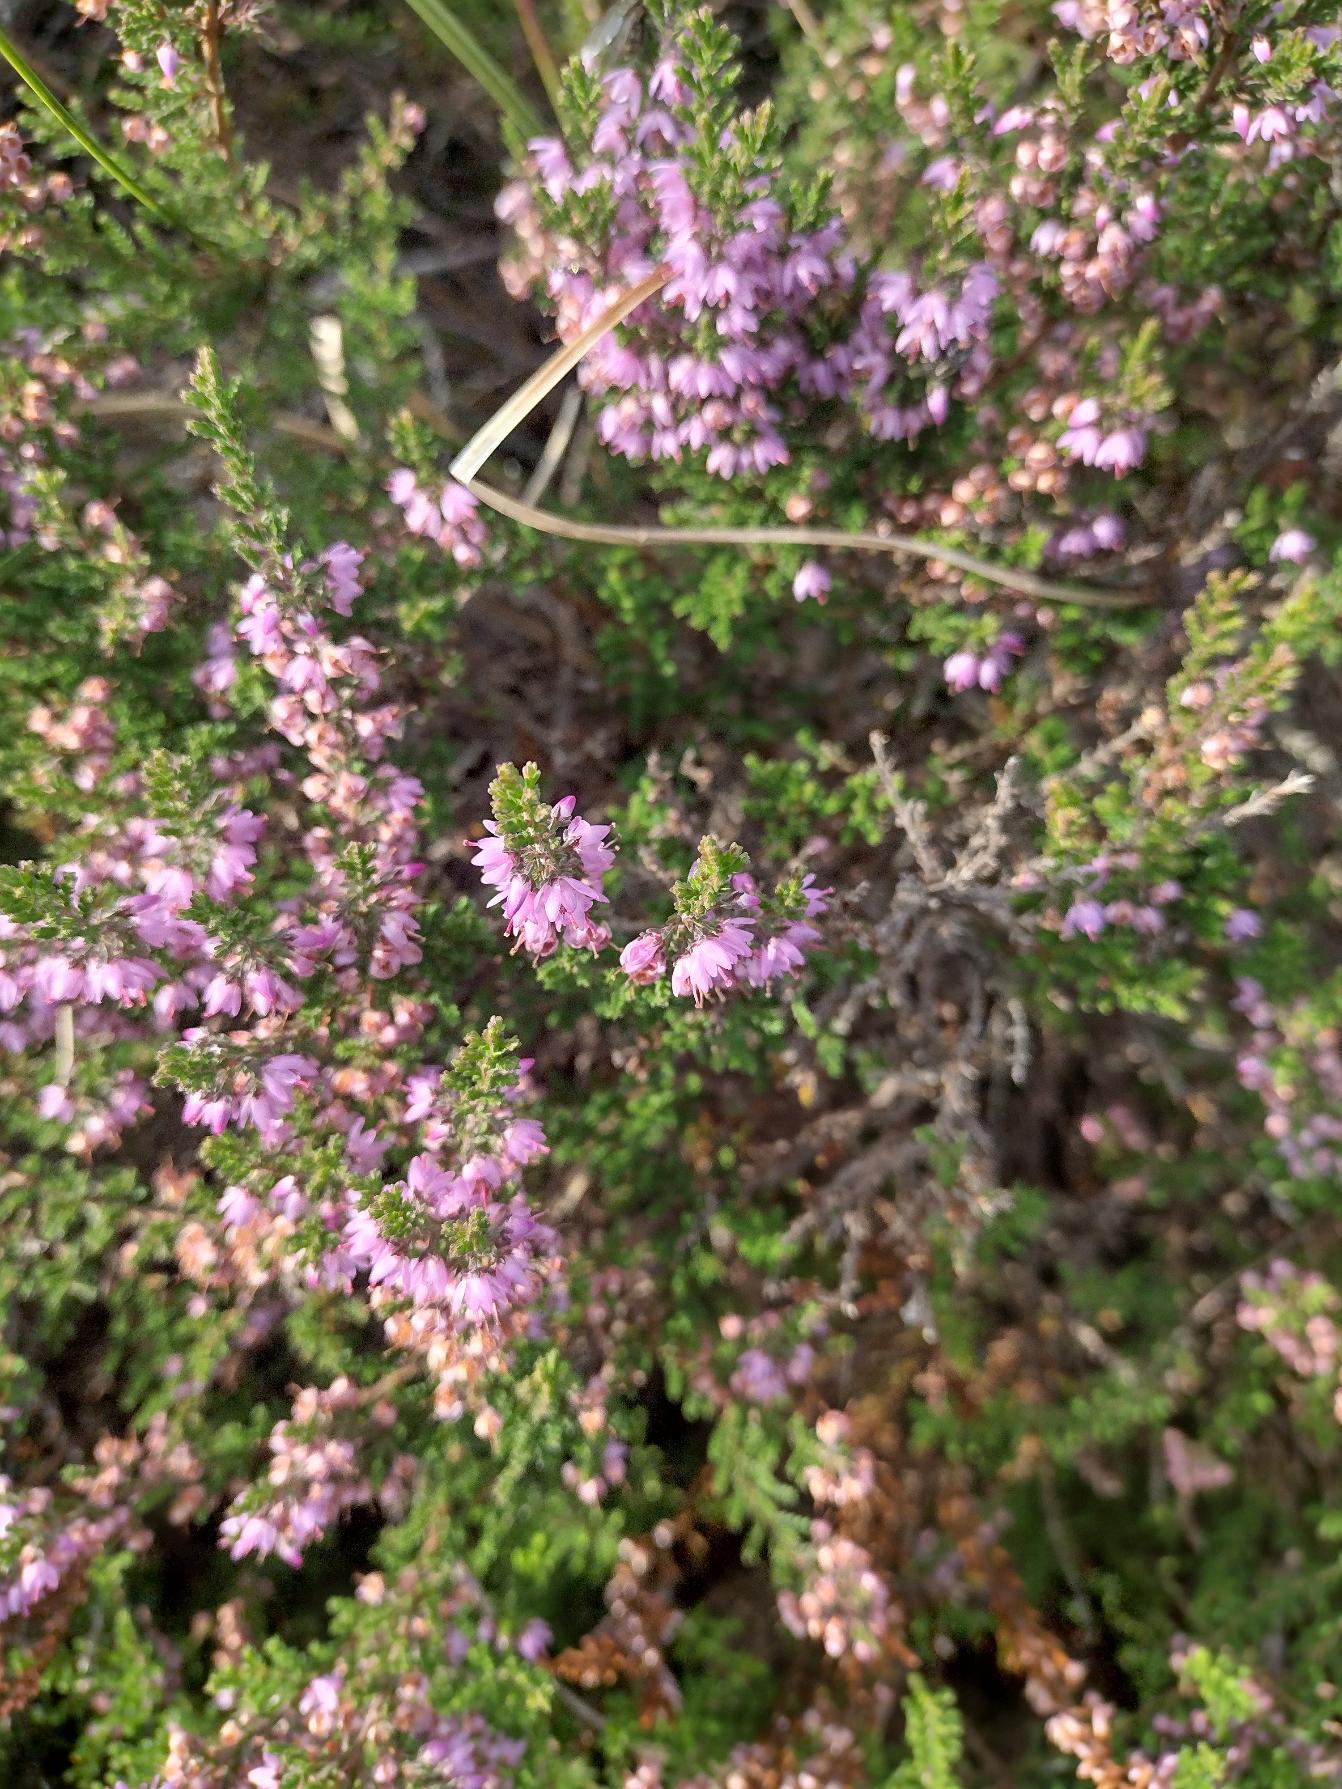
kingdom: Plantae
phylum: Tracheophyta
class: Magnoliopsida
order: Ericales
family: Ericaceae
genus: Calluna
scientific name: Calluna vulgaris
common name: Hedelyng
